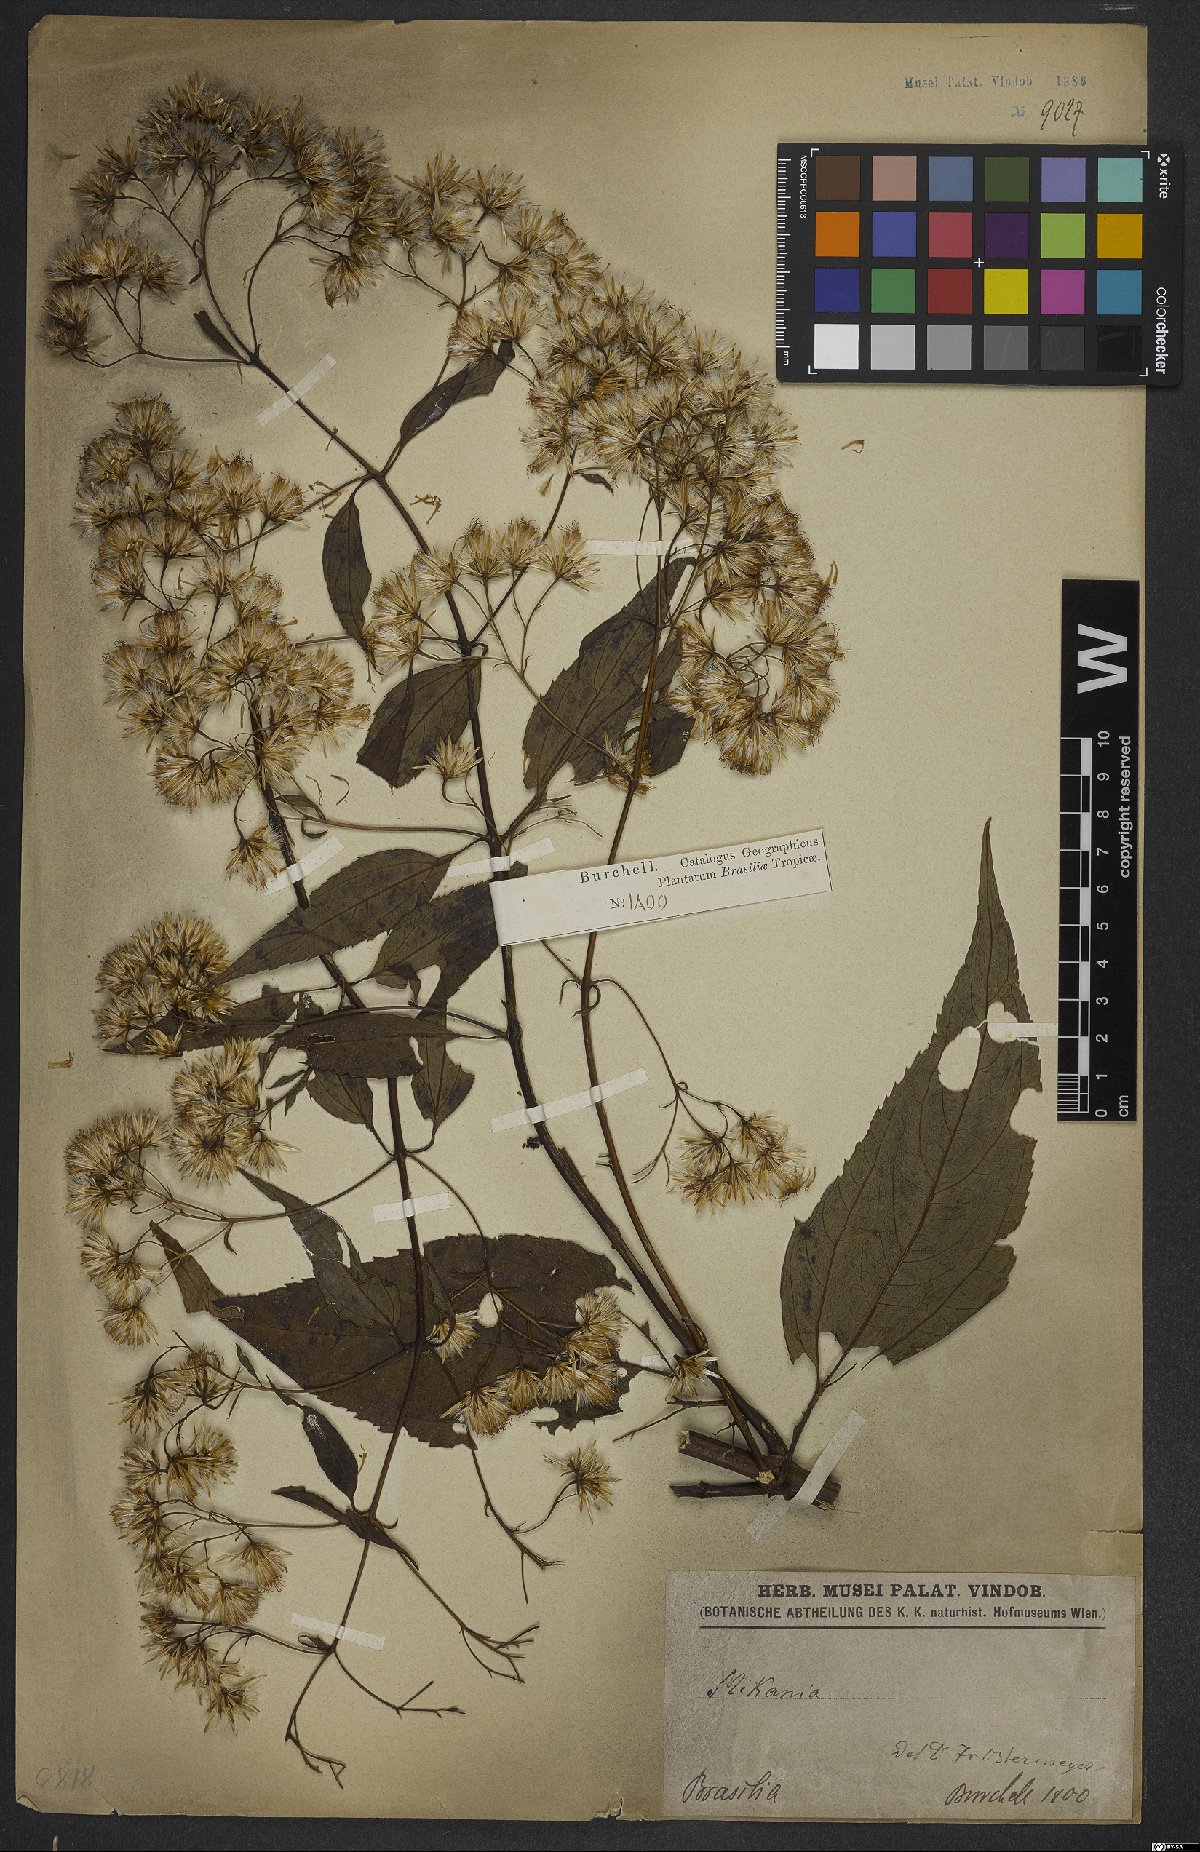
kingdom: Plantae
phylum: Tracheophyta
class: Magnoliopsida
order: Asterales
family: Asteraceae
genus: Mikania
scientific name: Mikania
